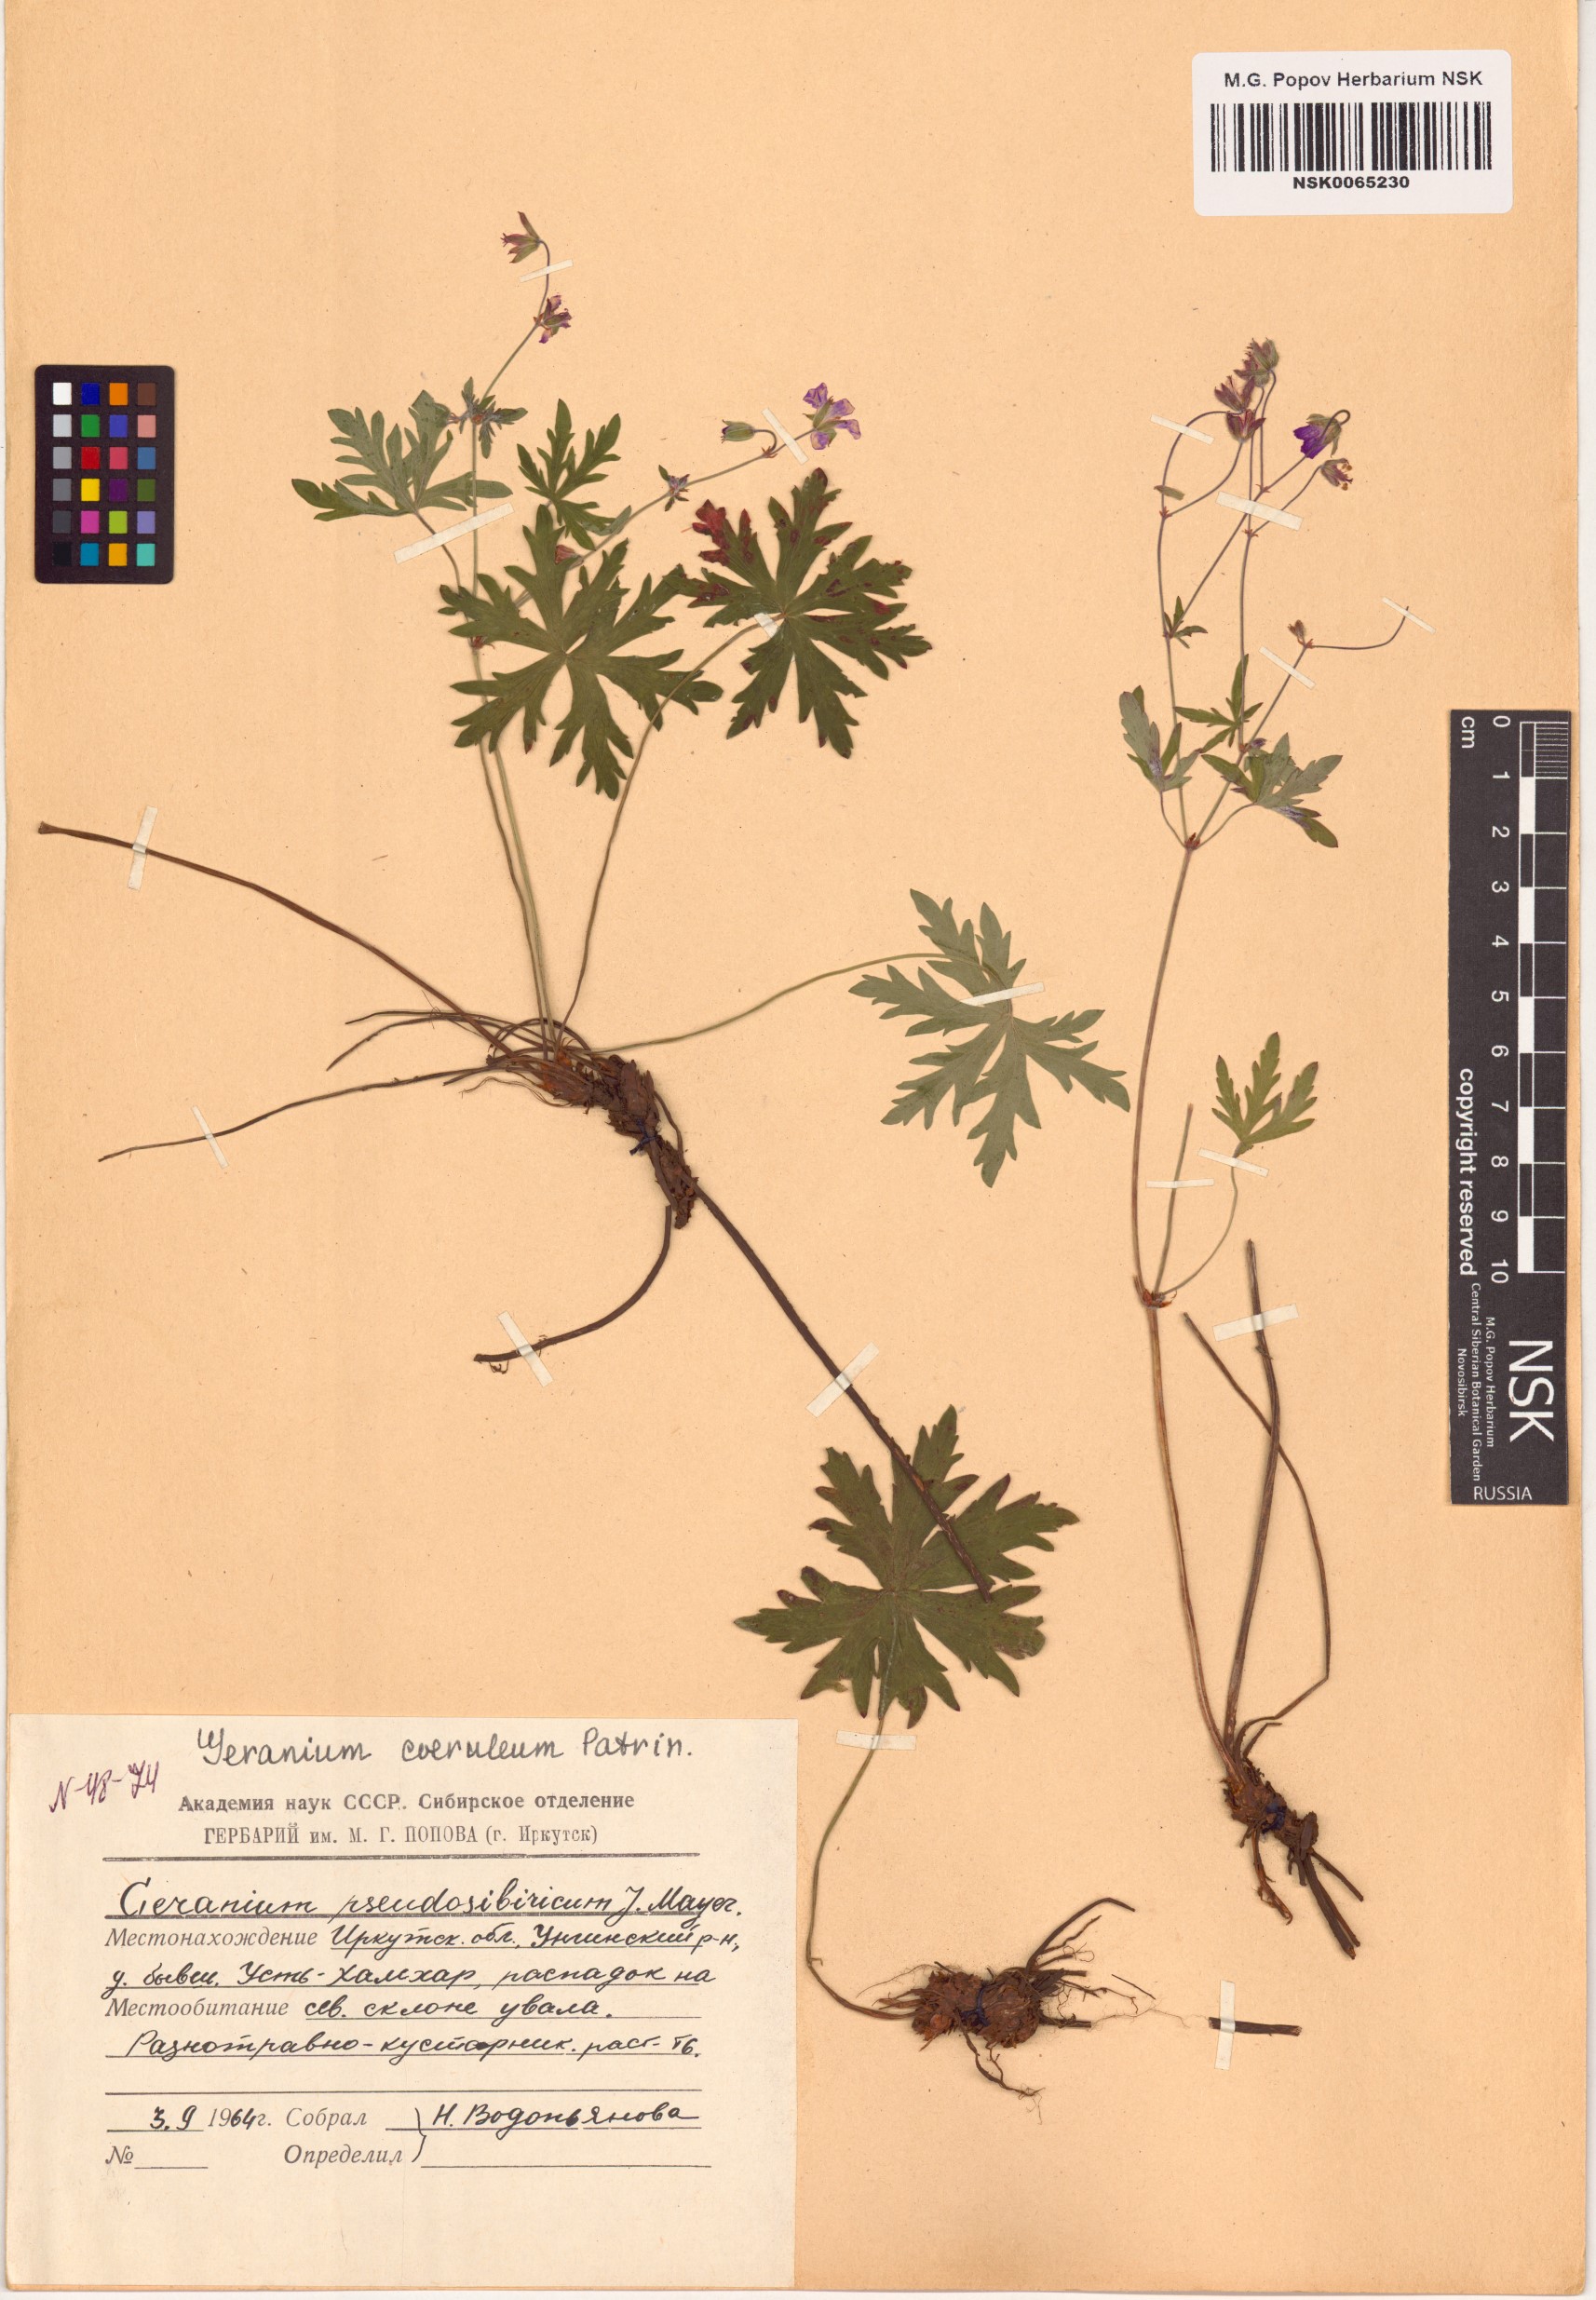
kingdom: Plantae
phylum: Tracheophyta
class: Magnoliopsida
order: Geraniales
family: Geraniaceae
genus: Geranium
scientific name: Geranium pseudosibiricum
